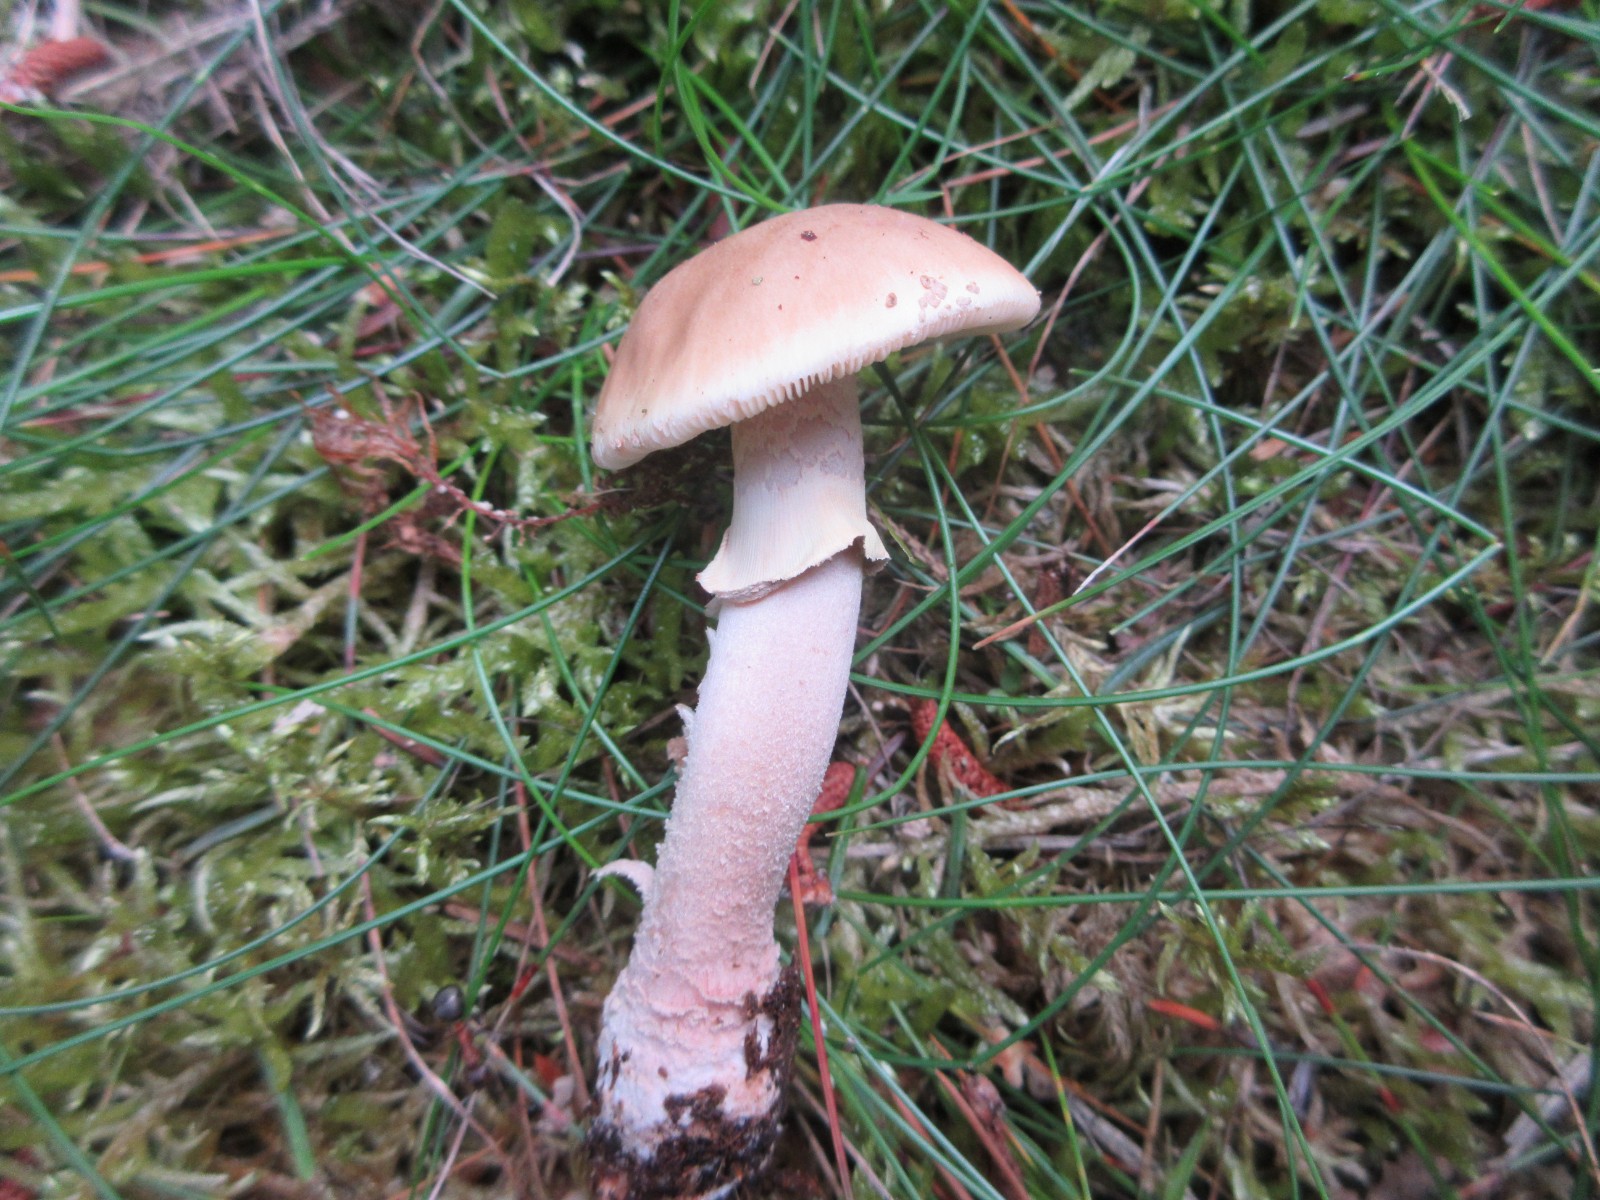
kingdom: Fungi
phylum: Basidiomycota
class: Agaricomycetes
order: Agaricales
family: Amanitaceae
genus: Amanita
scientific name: Amanita rubescens
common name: rødmende fluesvamp
